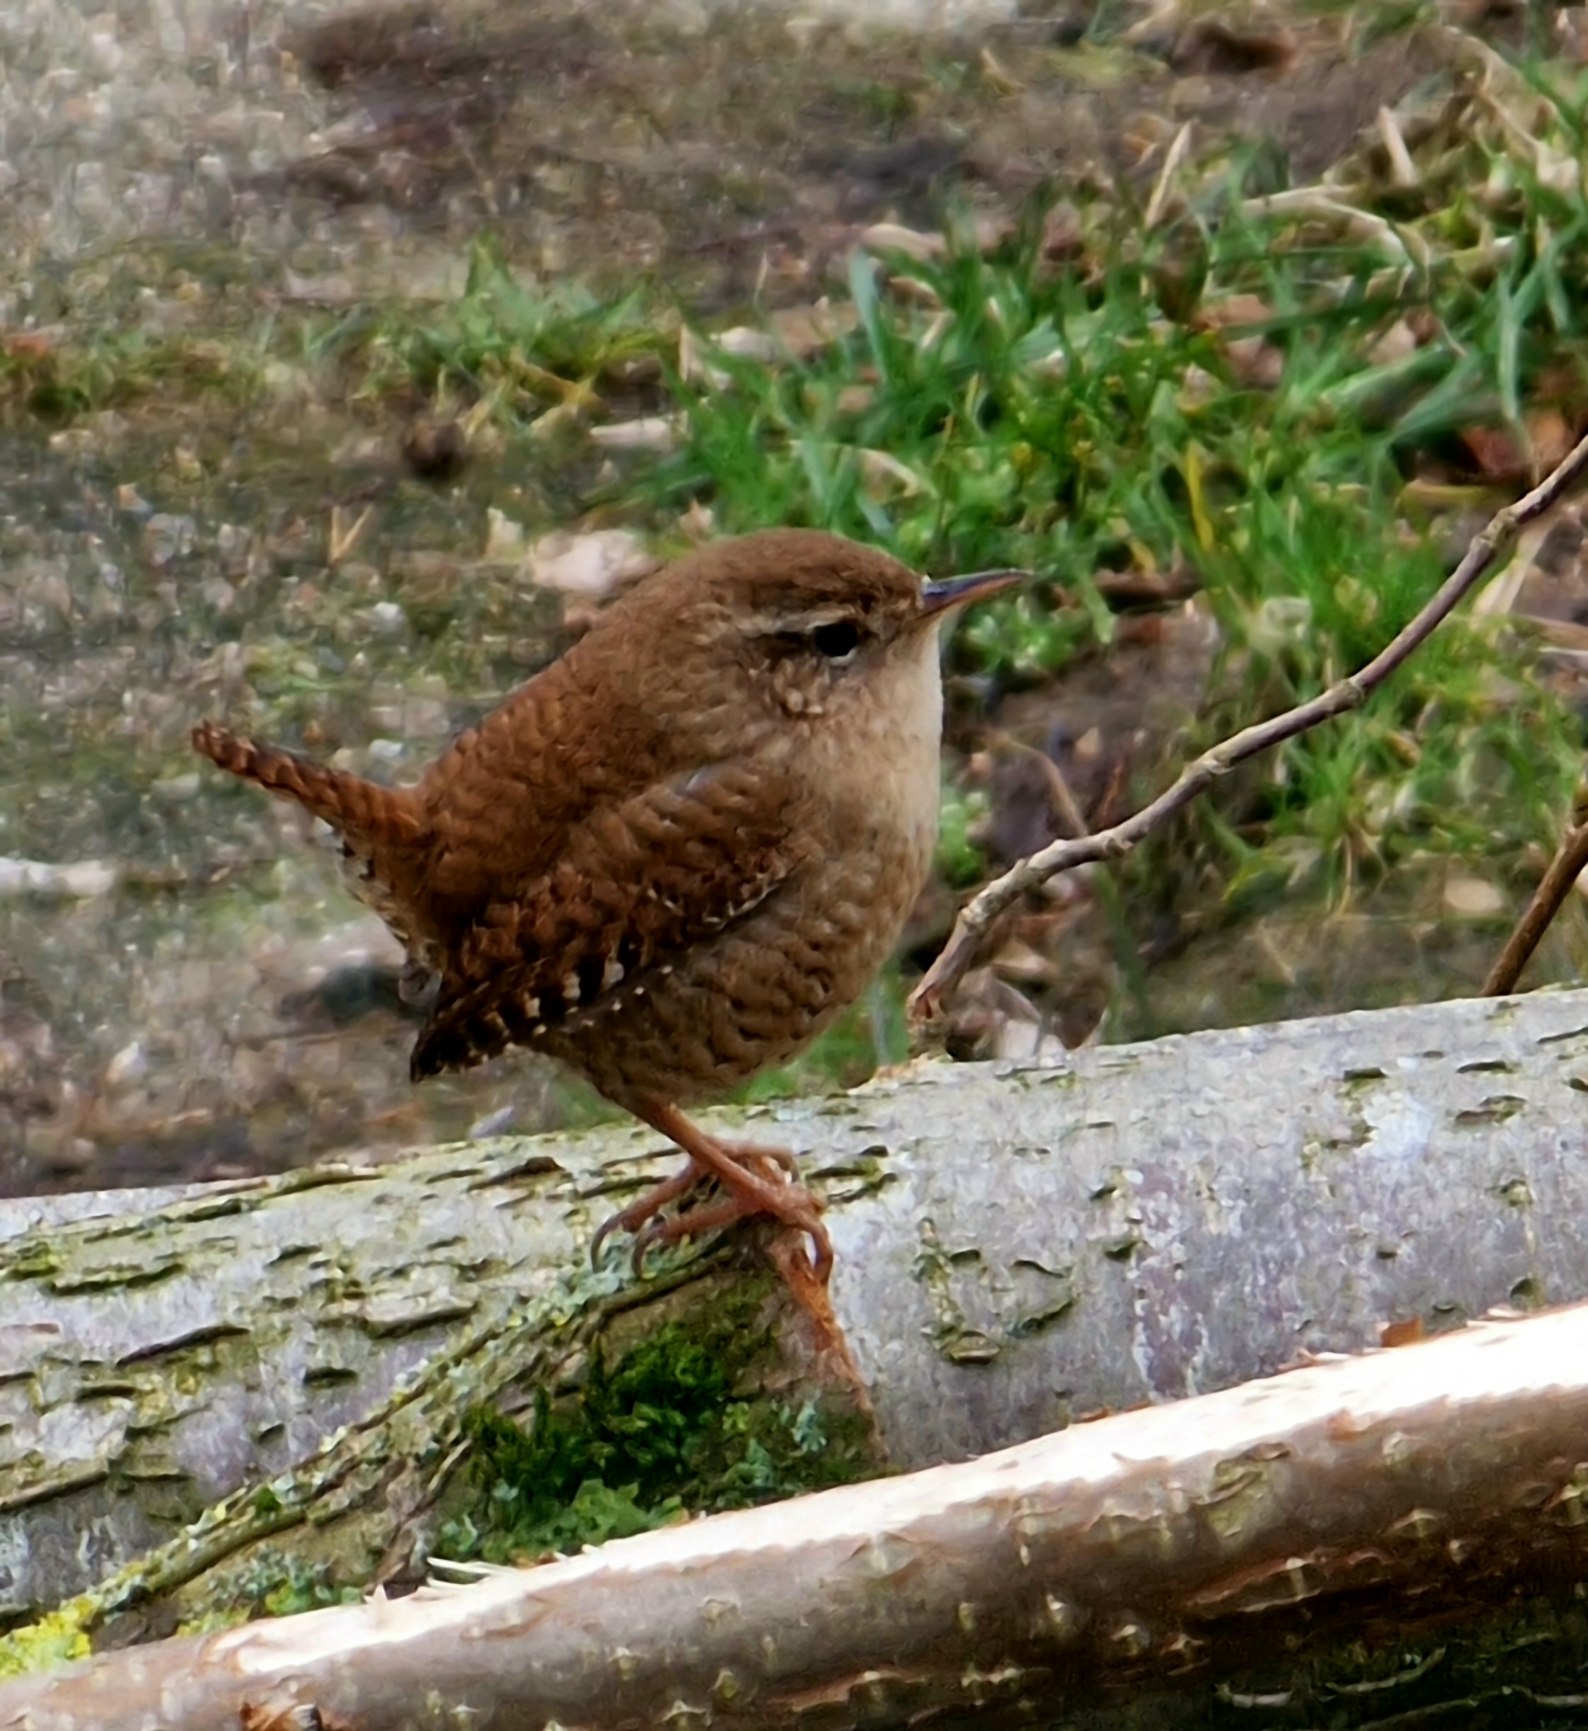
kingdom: Animalia
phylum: Chordata
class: Aves
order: Passeriformes
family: Troglodytidae
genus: Troglodytes
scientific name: Troglodytes troglodytes
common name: Gærdesmutte
